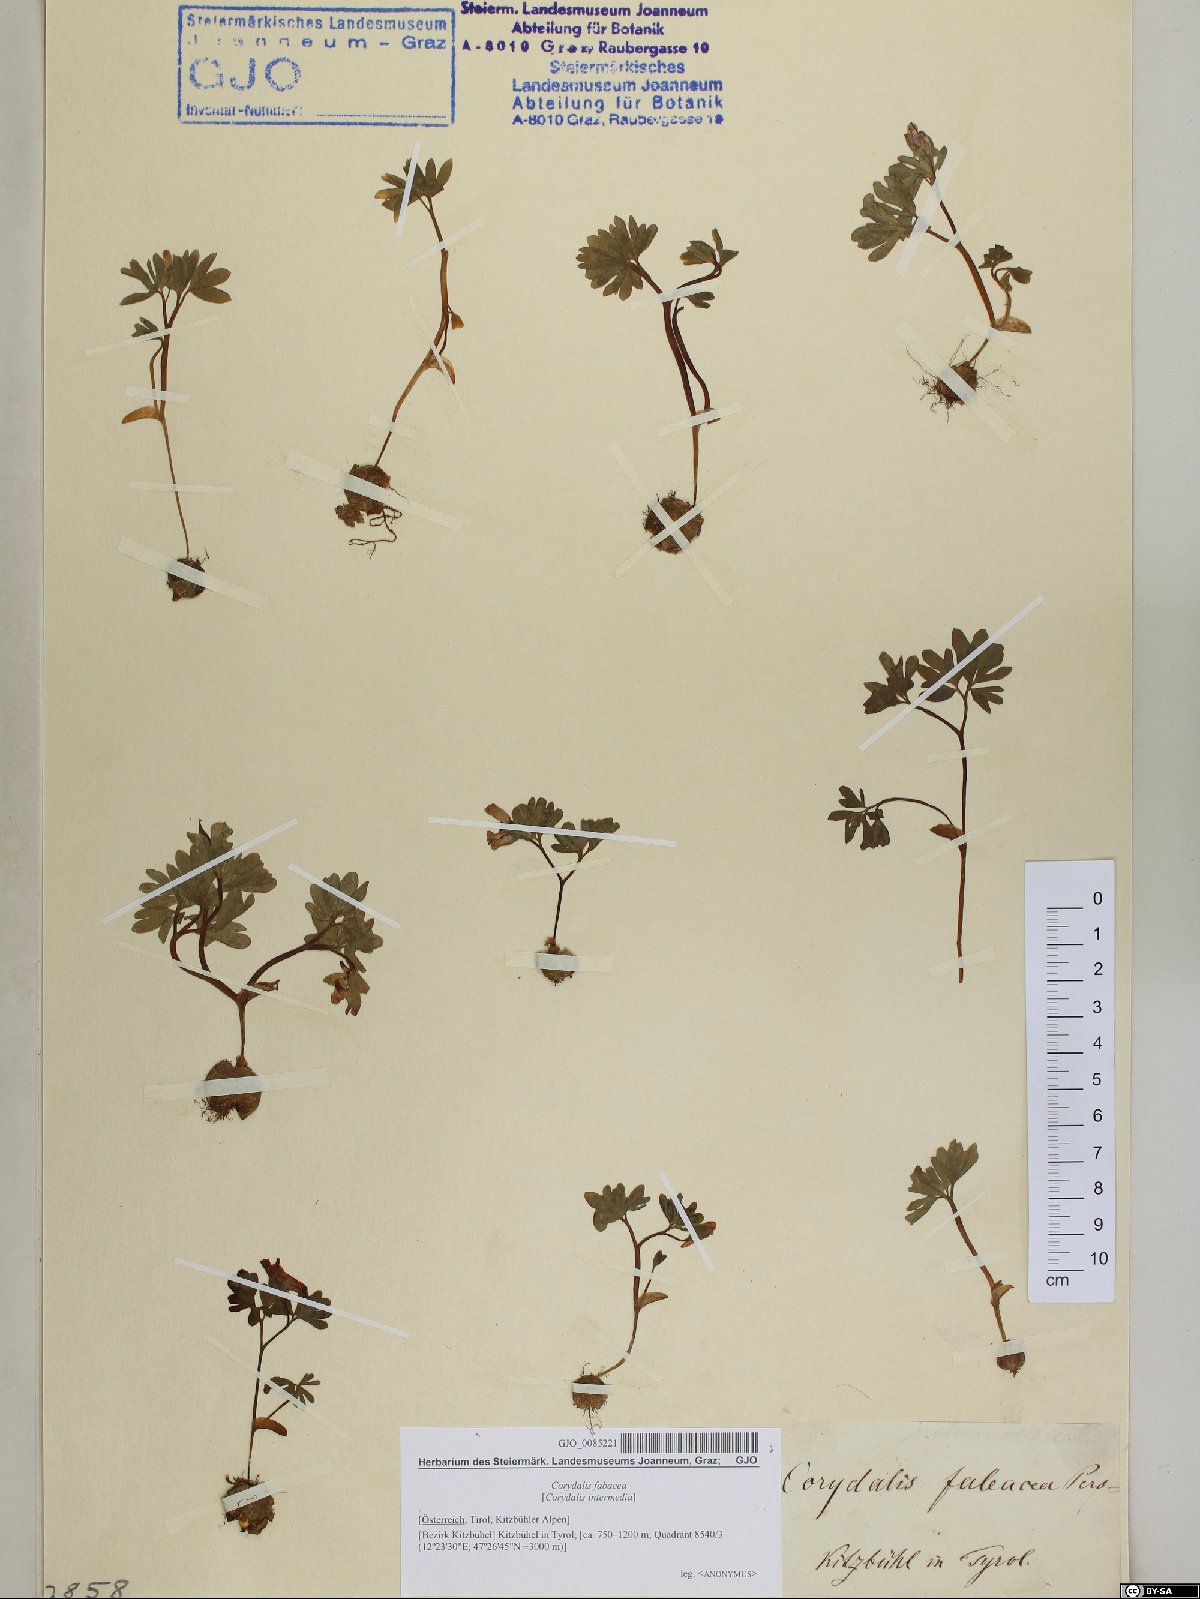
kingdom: Plantae
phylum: Tracheophyta
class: Magnoliopsida
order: Ranunculales
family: Papaveraceae
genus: Corydalis
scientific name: Corydalis intermedia
